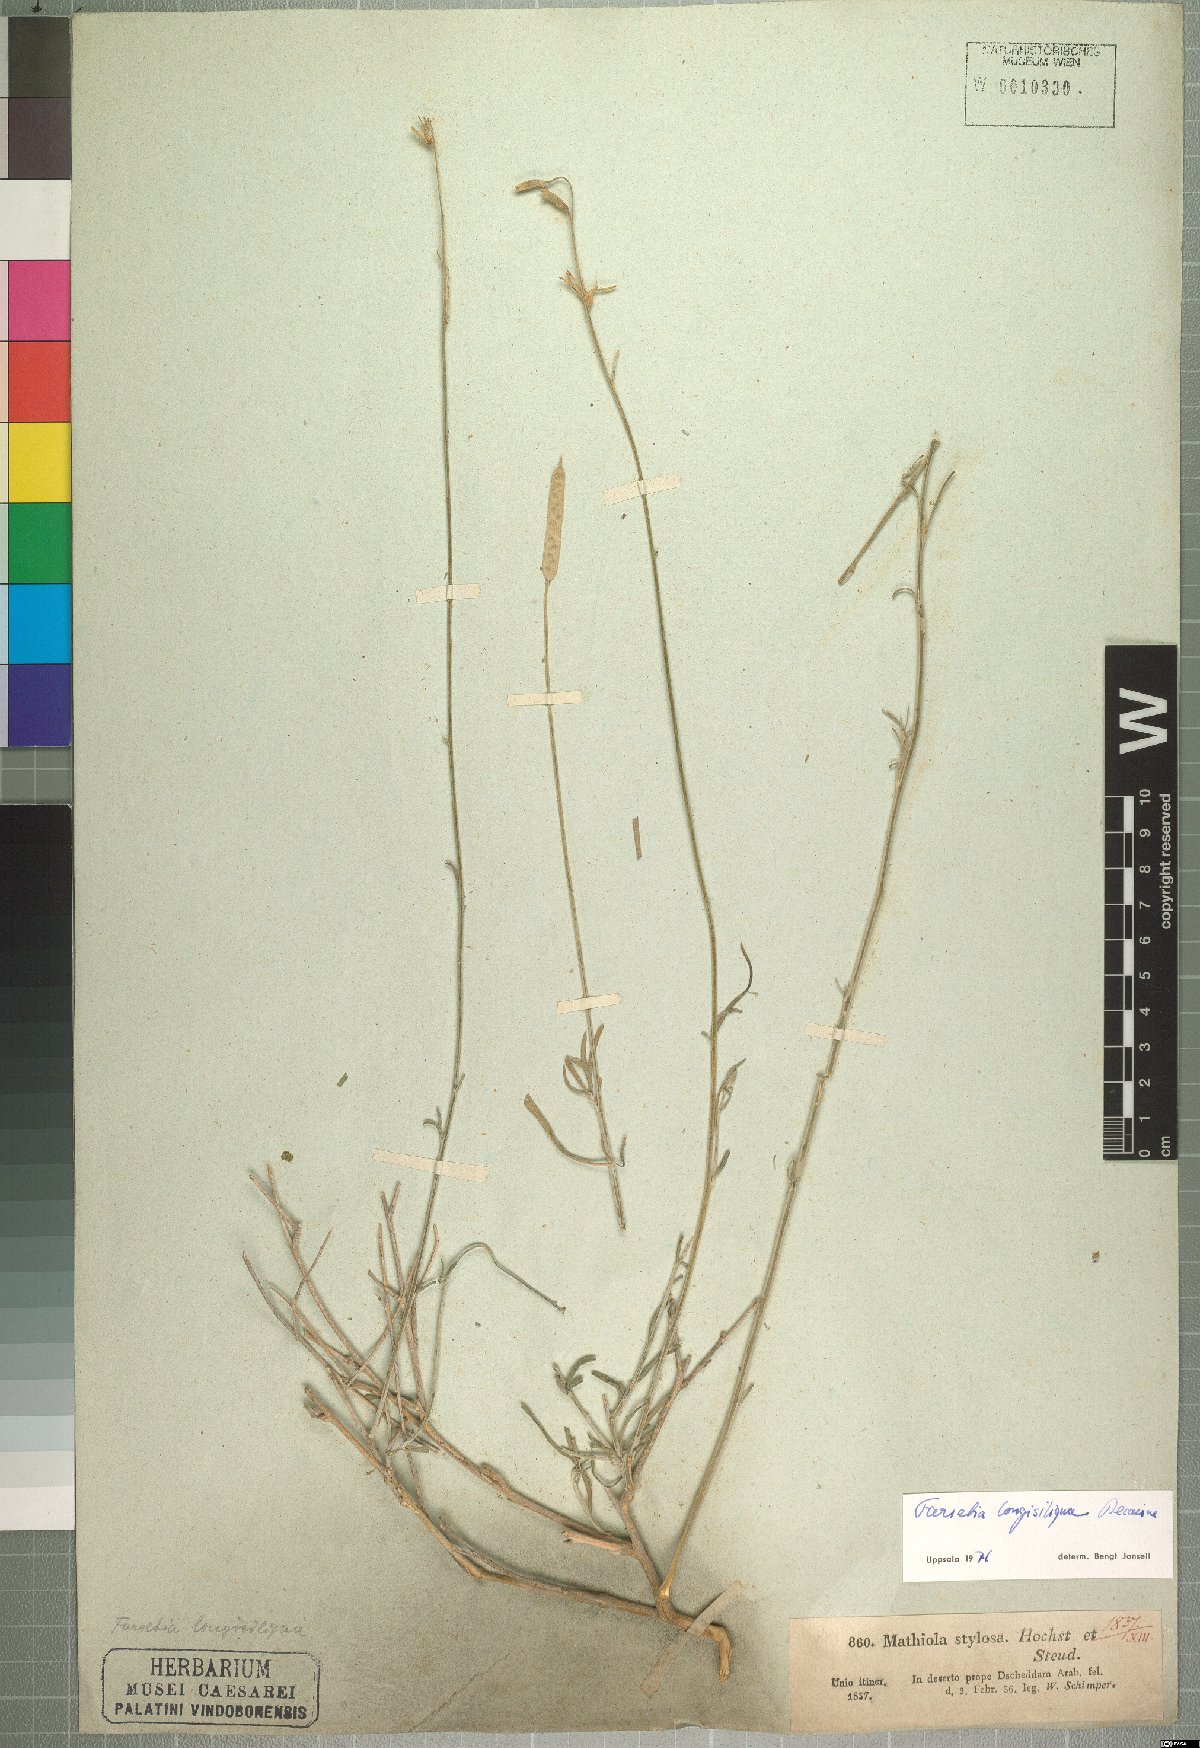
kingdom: Plantae
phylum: Tracheophyta
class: Magnoliopsida
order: Brassicales
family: Brassicaceae
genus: Farsetia
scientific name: Farsetia longisiliqua
